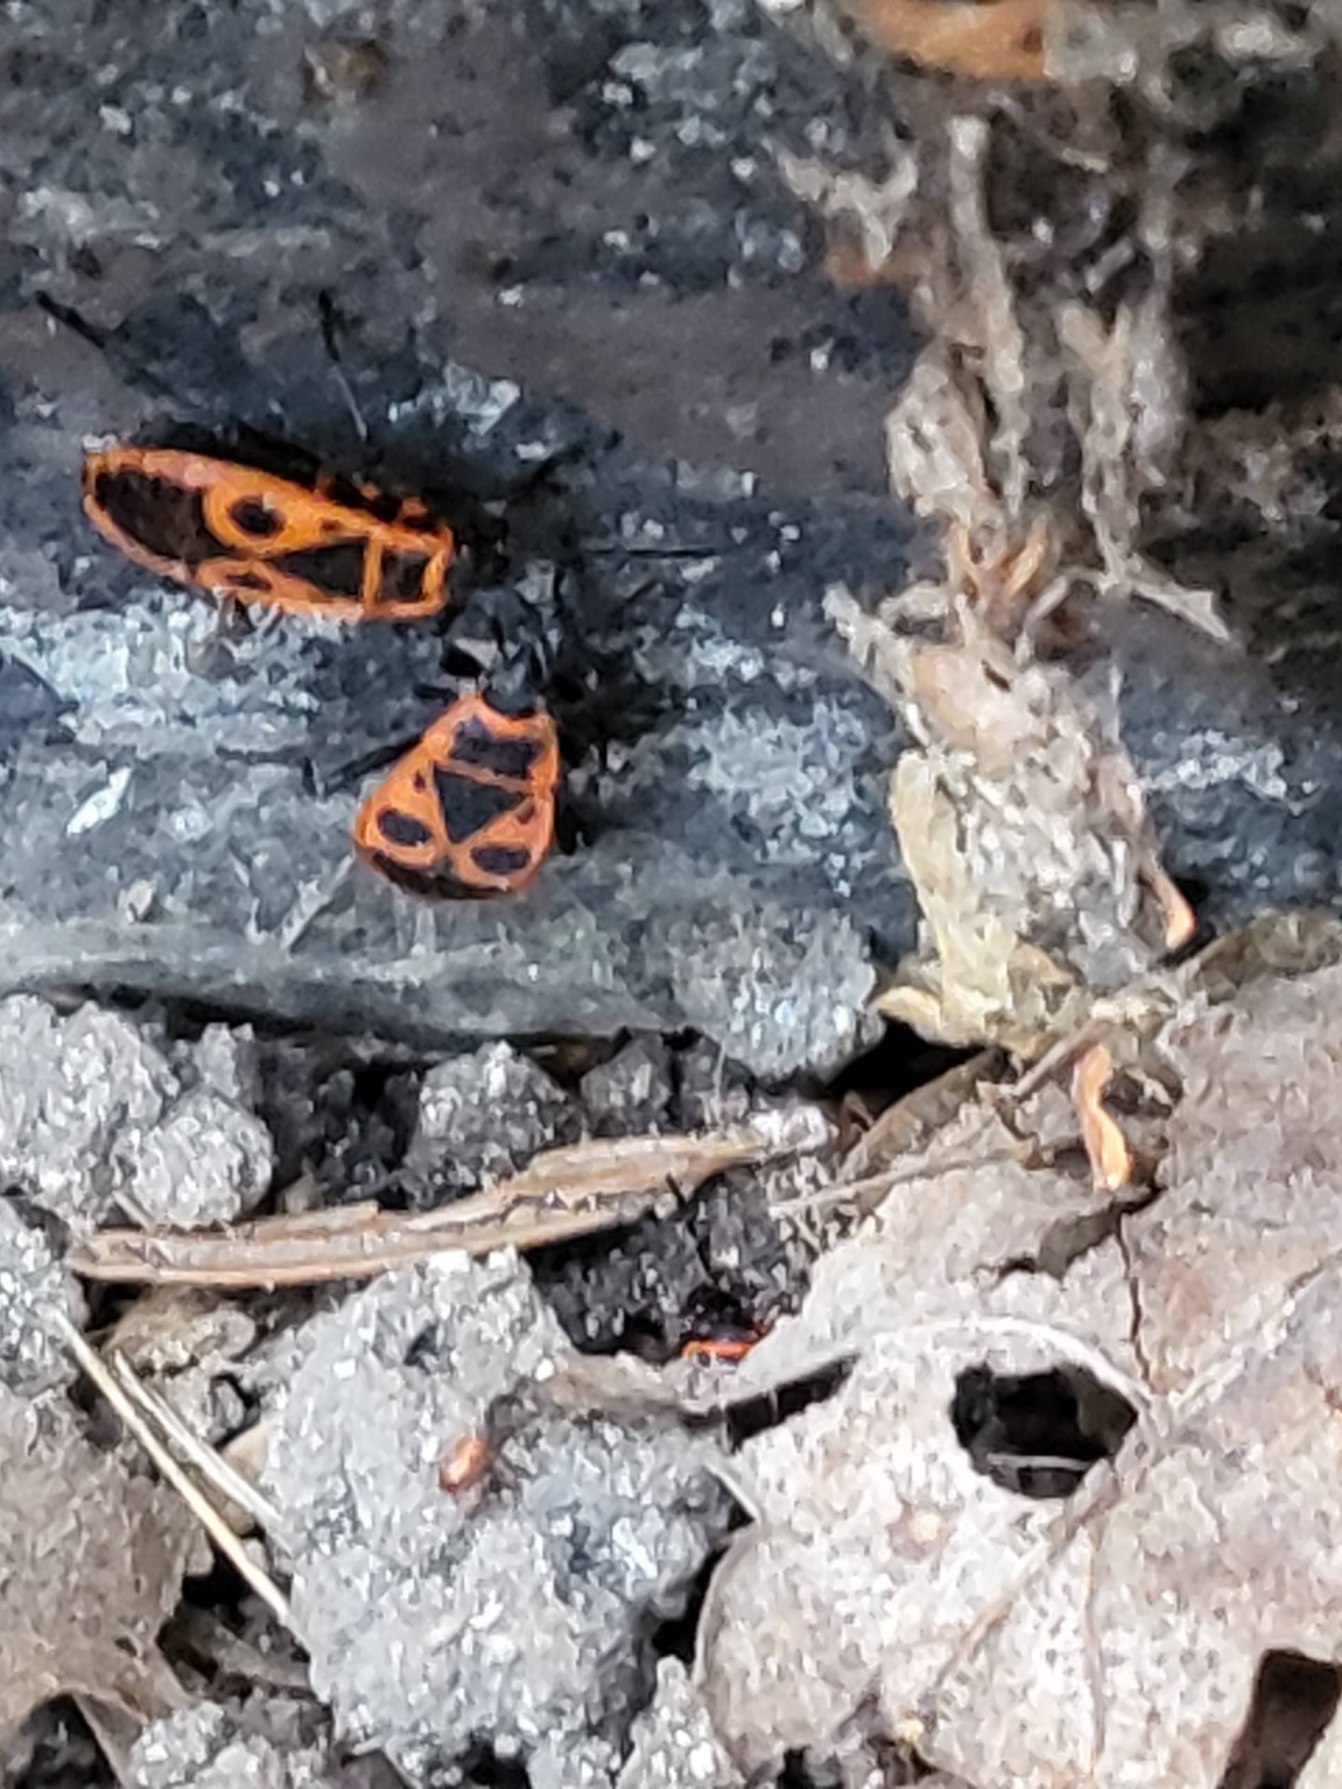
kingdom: Animalia
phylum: Arthropoda
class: Insecta
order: Hemiptera
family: Pyrrhocoridae
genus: Pyrrhocoris
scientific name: Pyrrhocoris apterus
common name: Ildtæge
